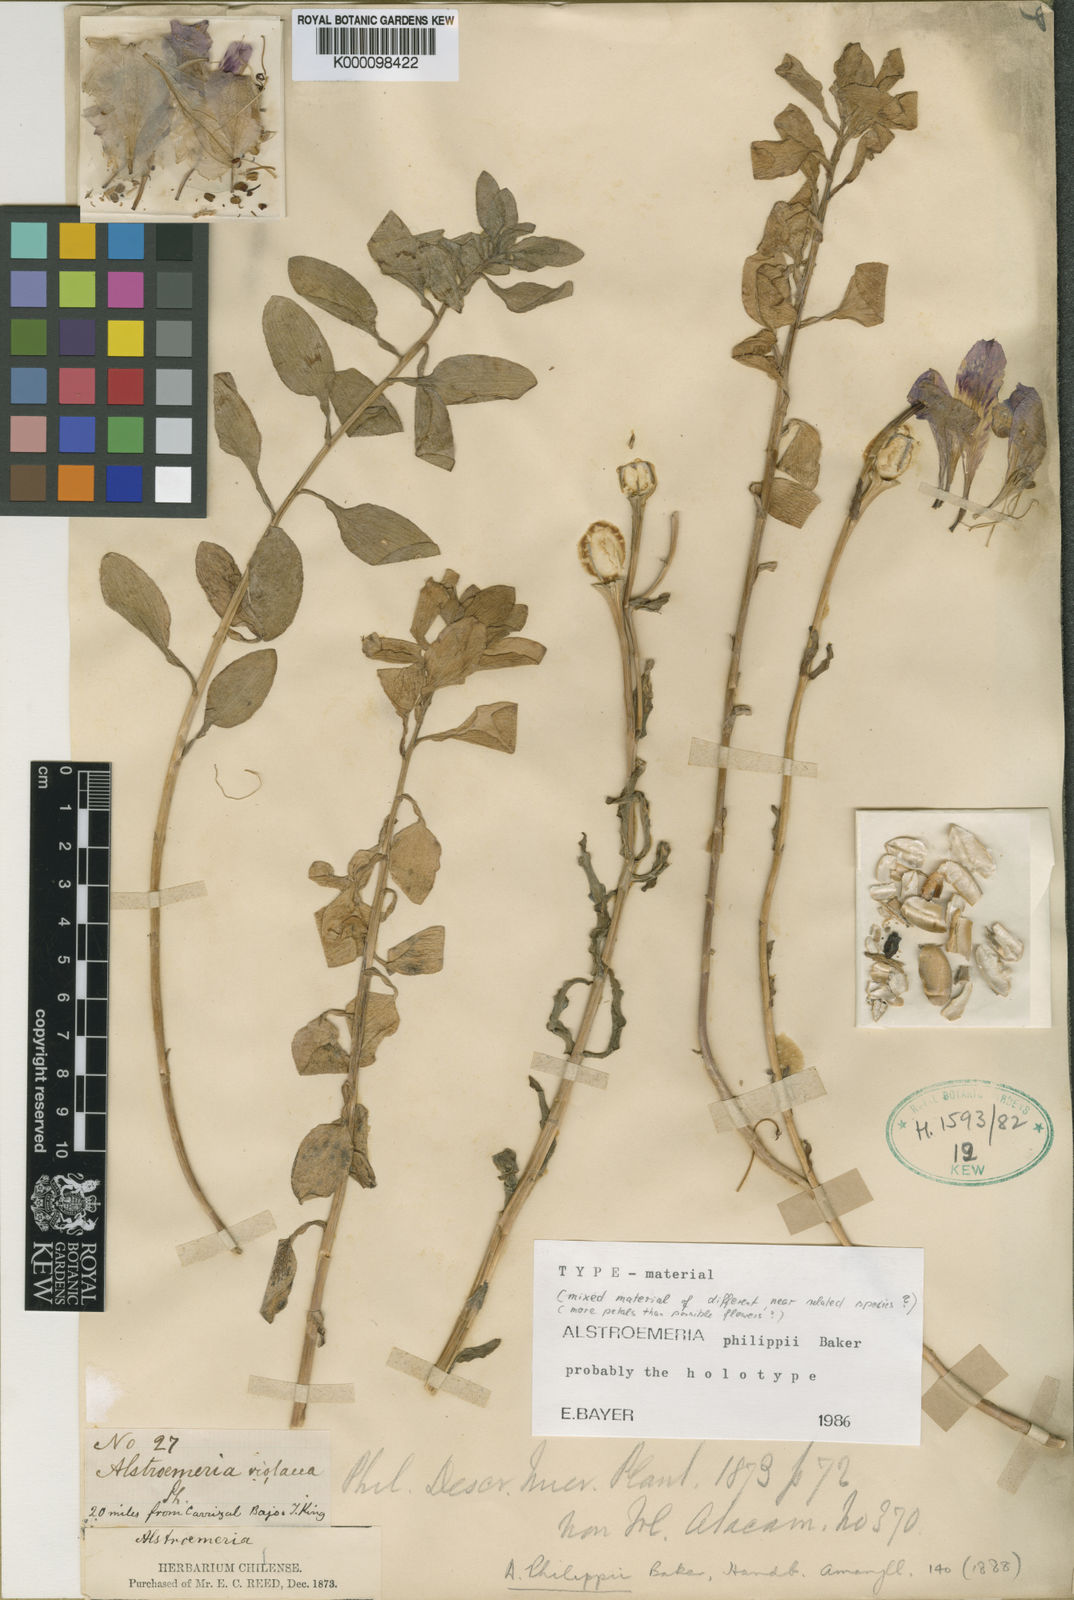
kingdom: Plantae
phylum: Tracheophyta
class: Liliopsida
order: Liliales
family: Alstroemeriaceae
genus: Alstroemeria
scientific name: Alstroemeria philippii
